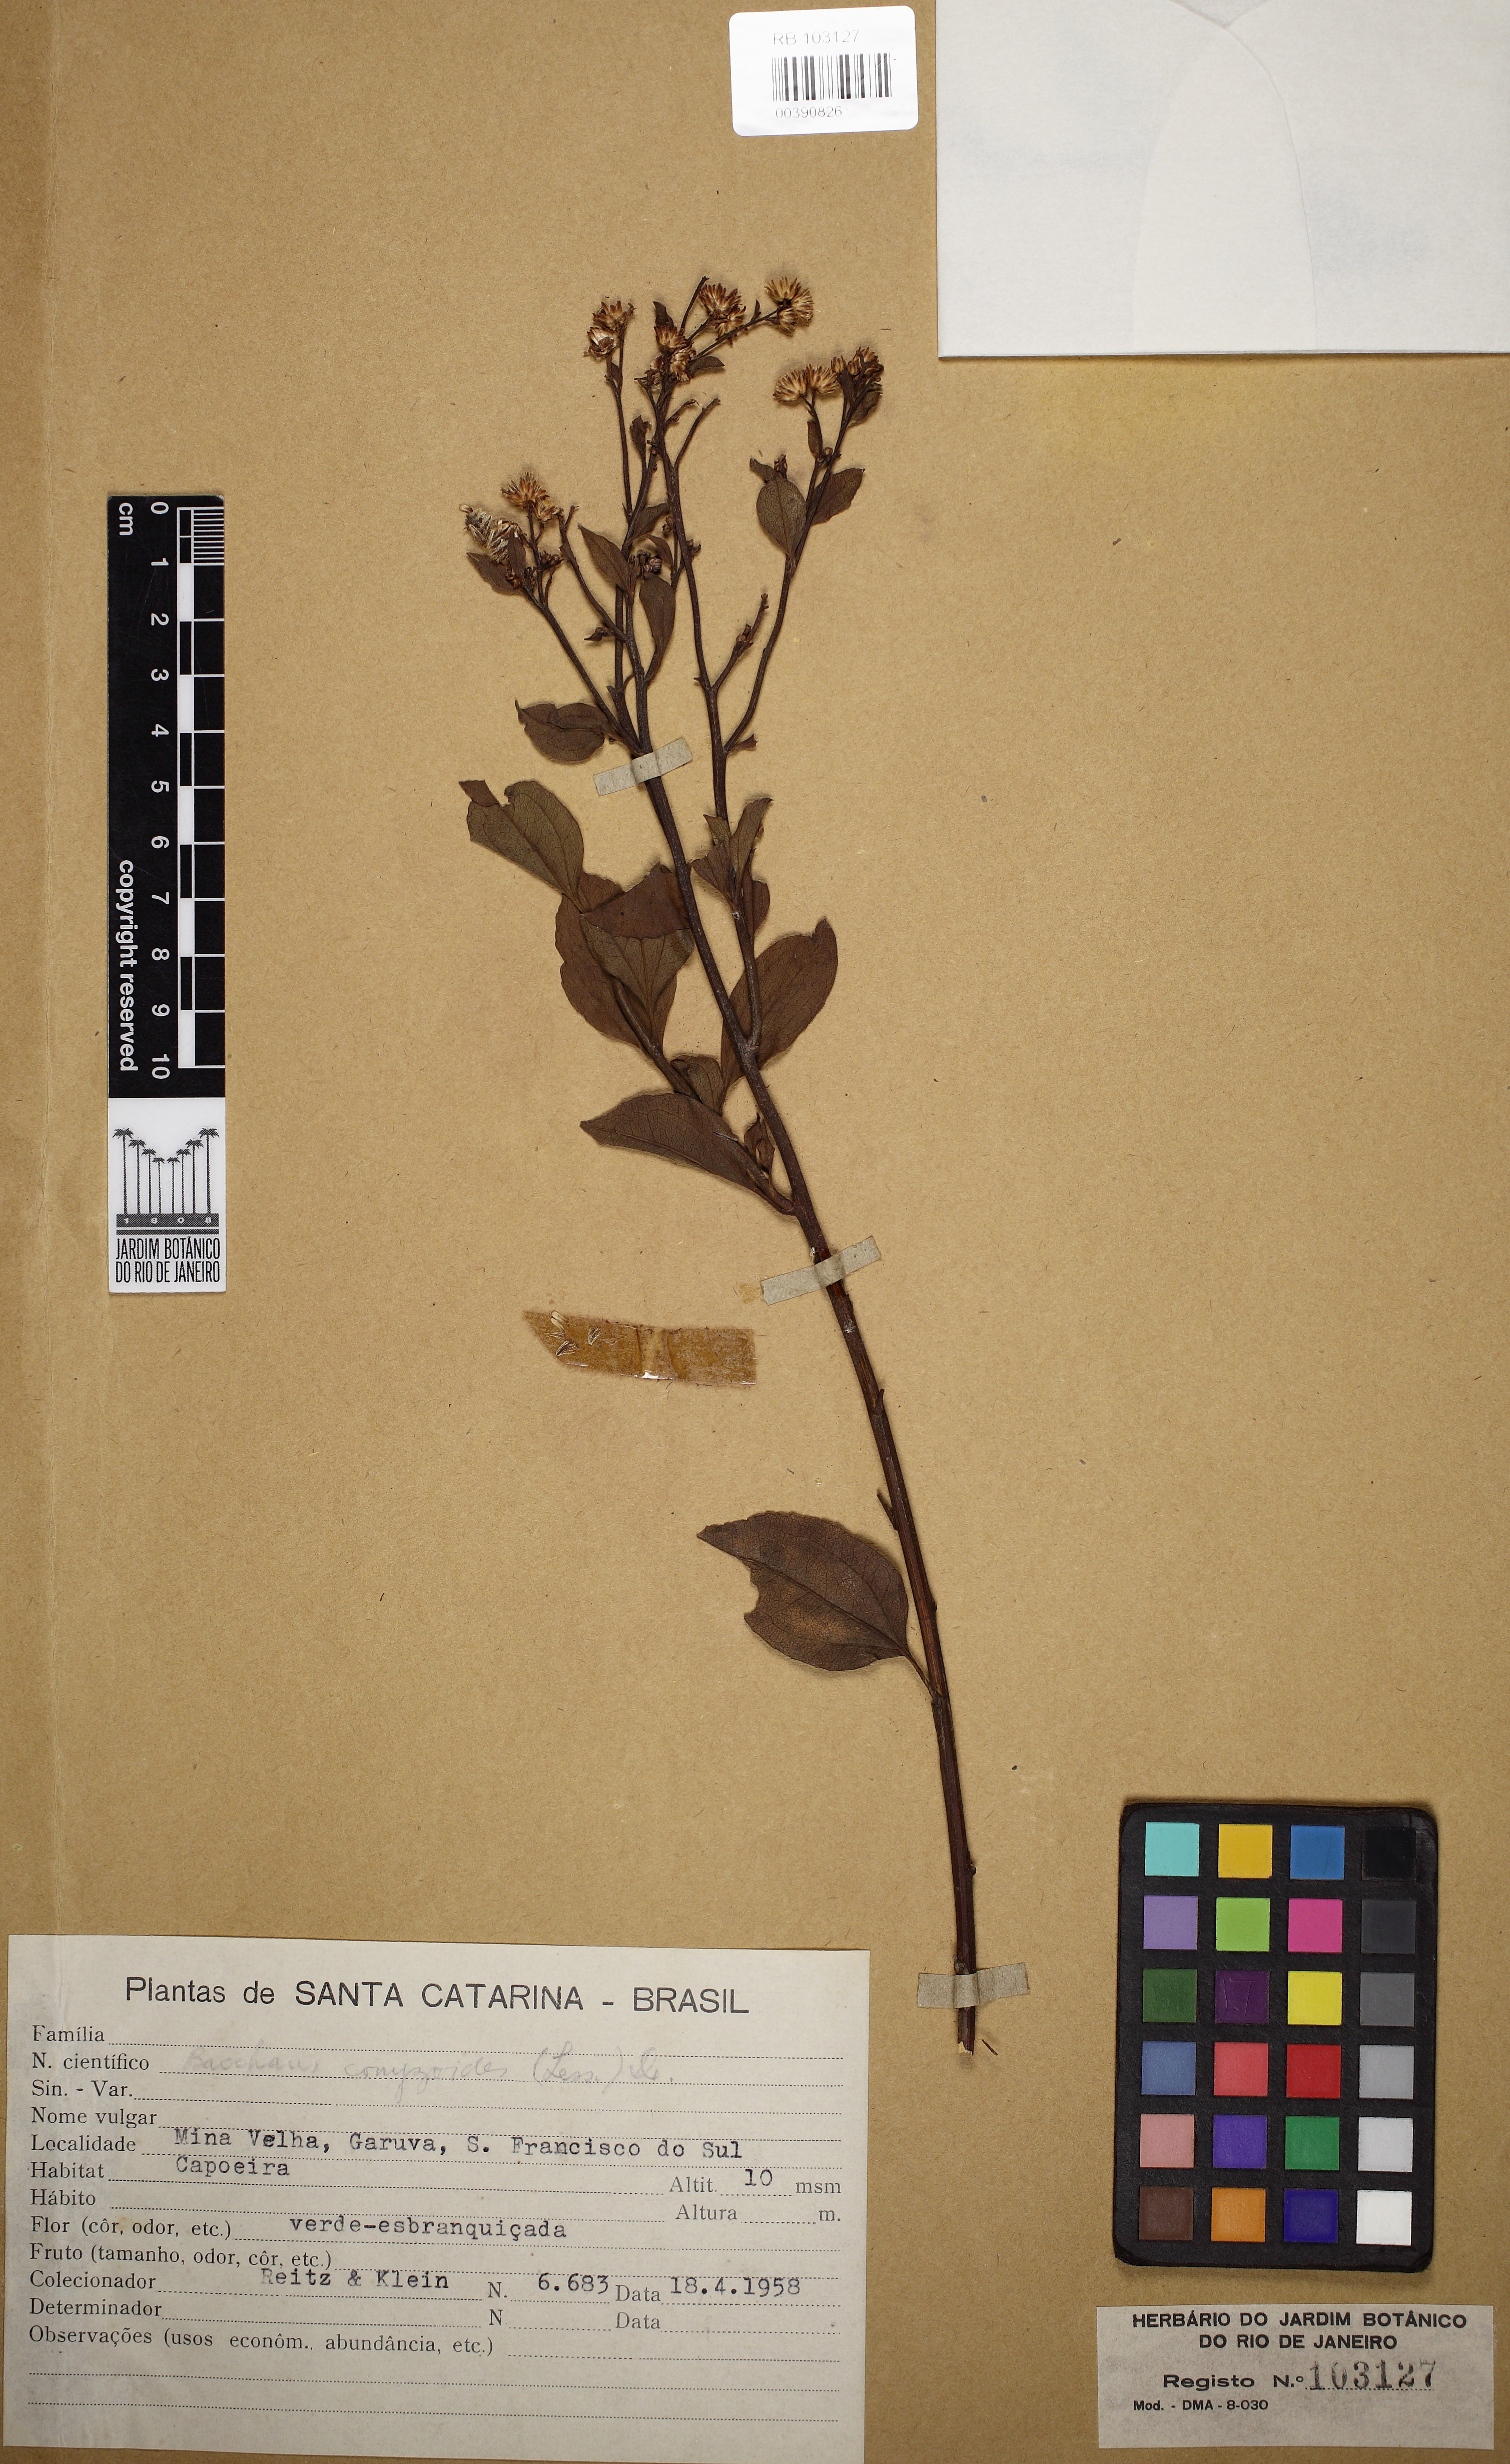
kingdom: Plantae
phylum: Tracheophyta
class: Magnoliopsida
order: Asterales
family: Asteraceae
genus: Baccharis
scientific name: Baccharis conyzoides
